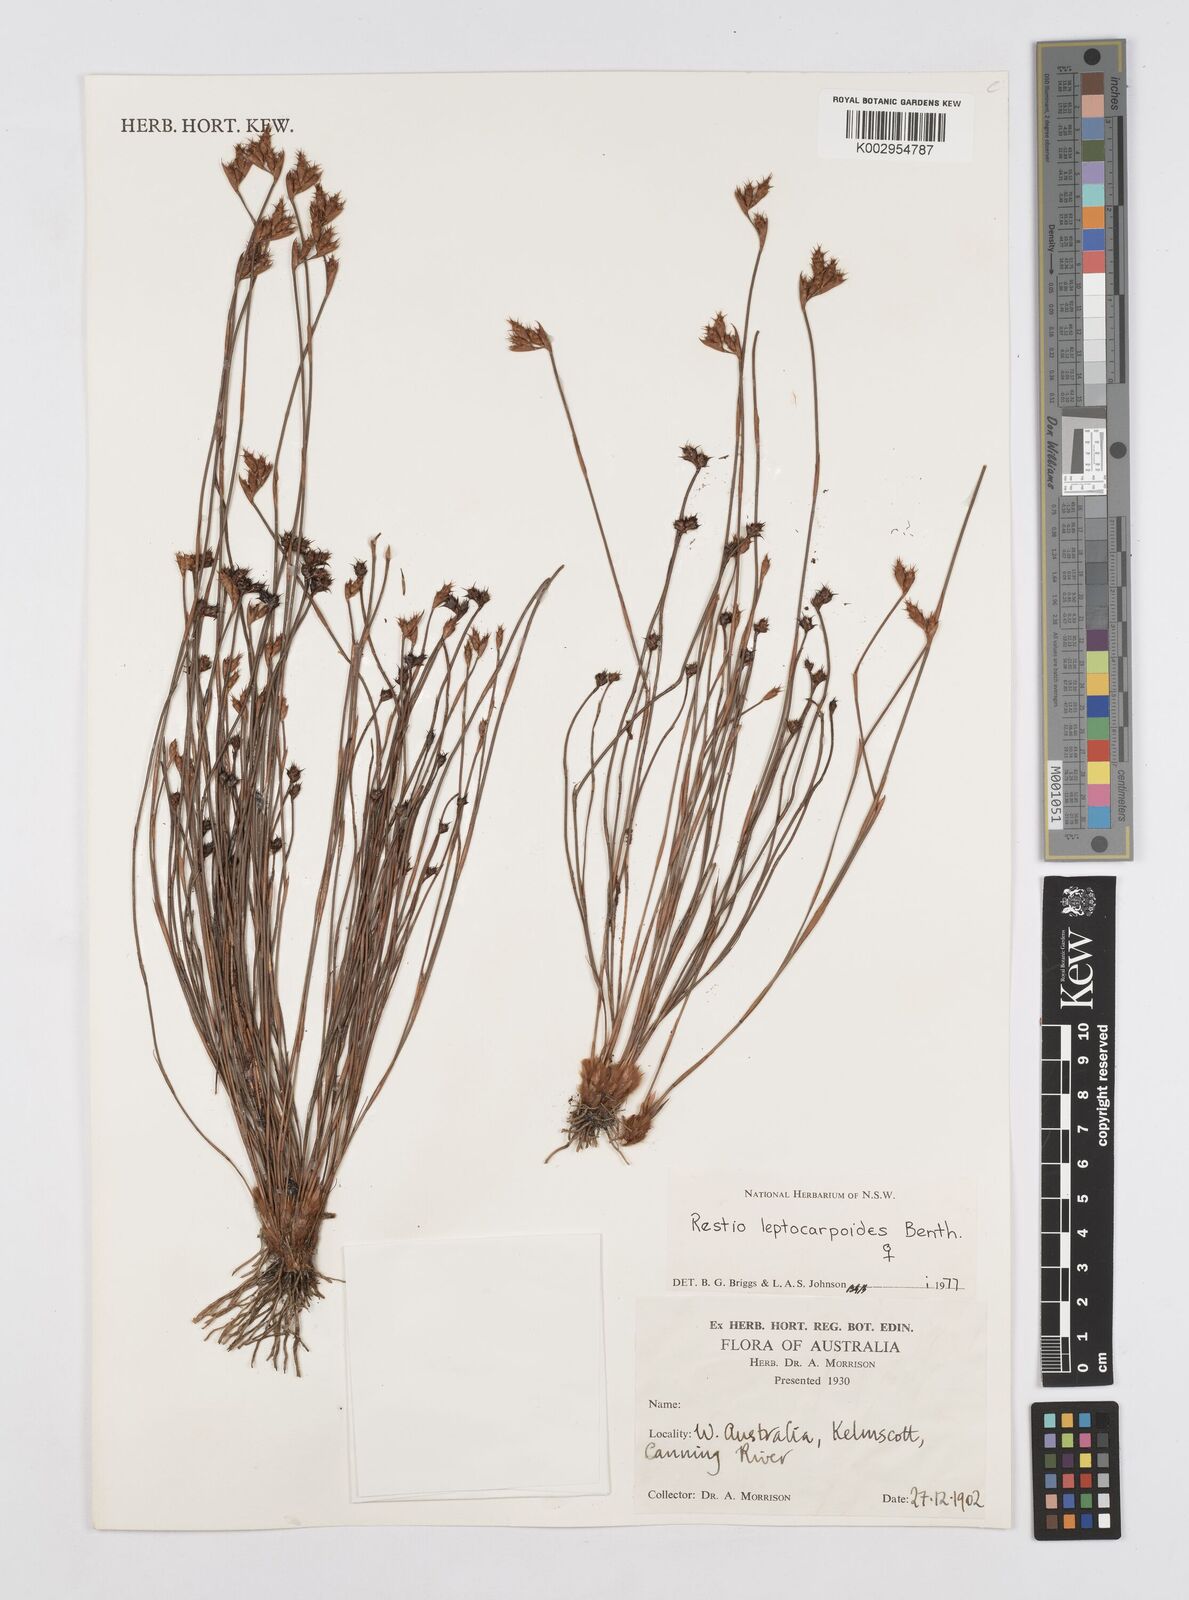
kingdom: Plantae
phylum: Tracheophyta
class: Liliopsida
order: Poales
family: Restionaceae
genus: Cytogonidium
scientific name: Cytogonidium leptocarpoides
